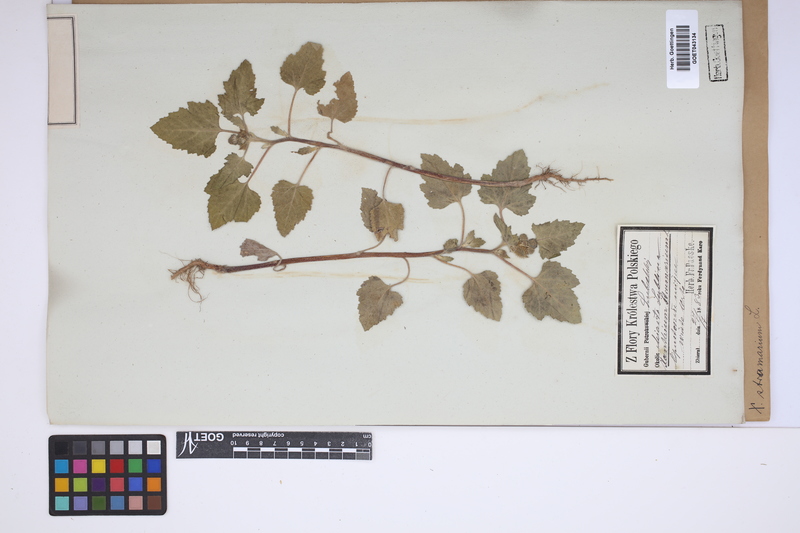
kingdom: Plantae
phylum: Tracheophyta
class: Magnoliopsida
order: Asterales
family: Asteraceae
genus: Xanthium
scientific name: Xanthium strumarium
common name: Rough cocklebur
